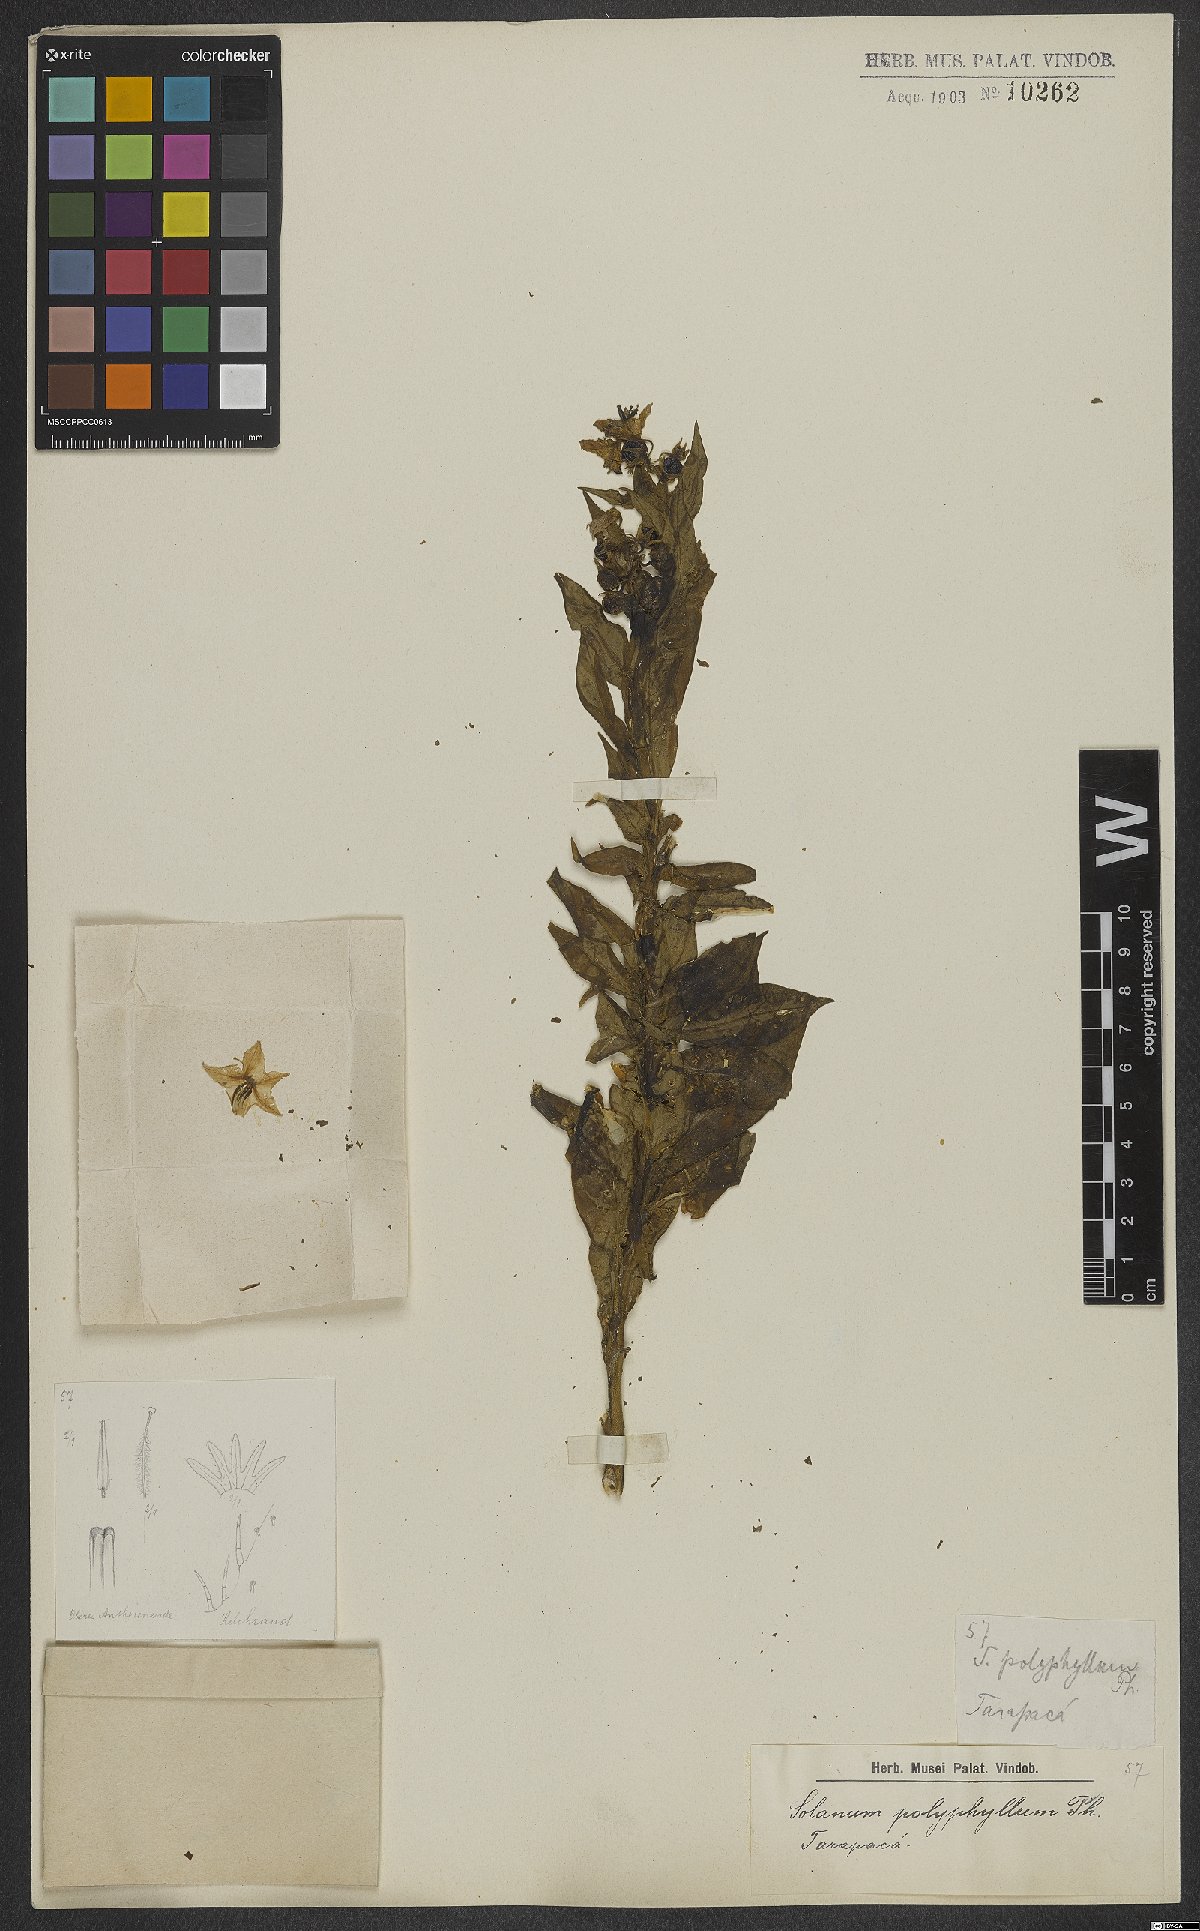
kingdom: Plantae
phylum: Tracheophyta
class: Magnoliopsida
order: Solanales
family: Solanaceae
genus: Solanum
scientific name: Solanum polyphyllum
